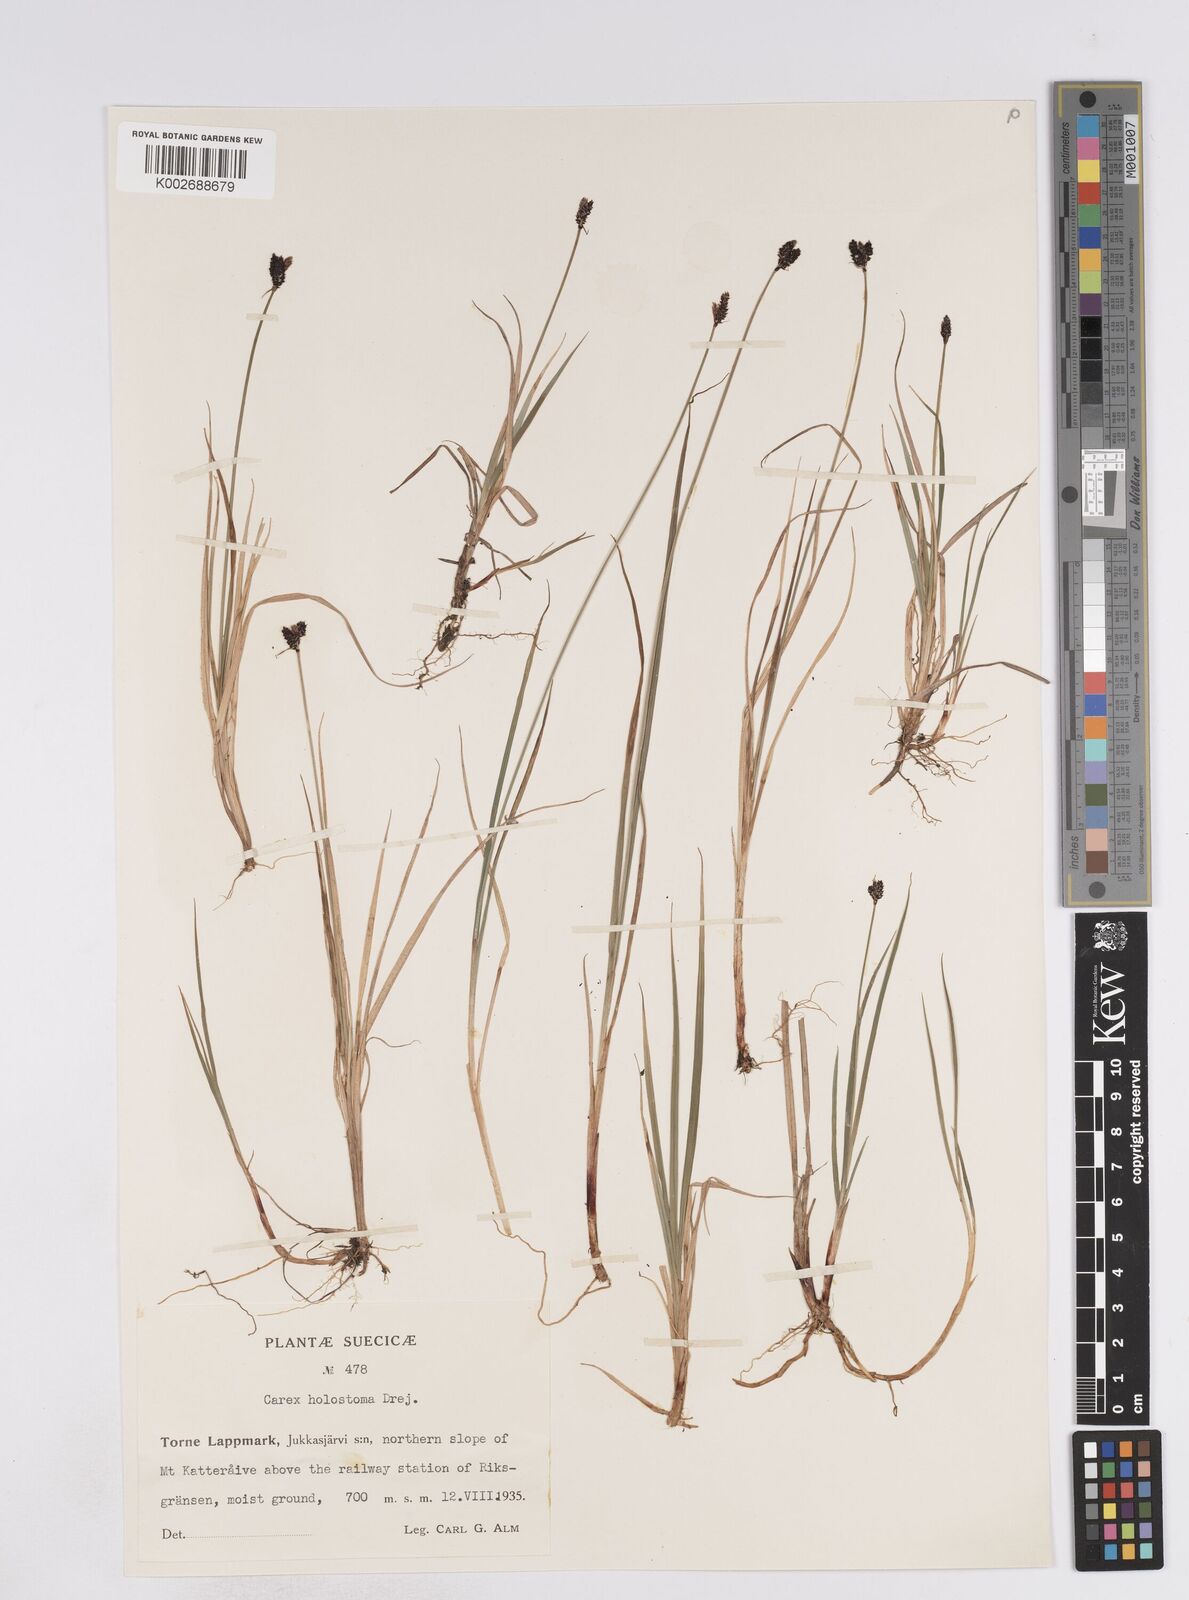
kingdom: Plantae
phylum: Tracheophyta
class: Liliopsida
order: Poales
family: Cyperaceae
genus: Carex
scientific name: Carex holostoma
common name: Arctic marsh sedge
